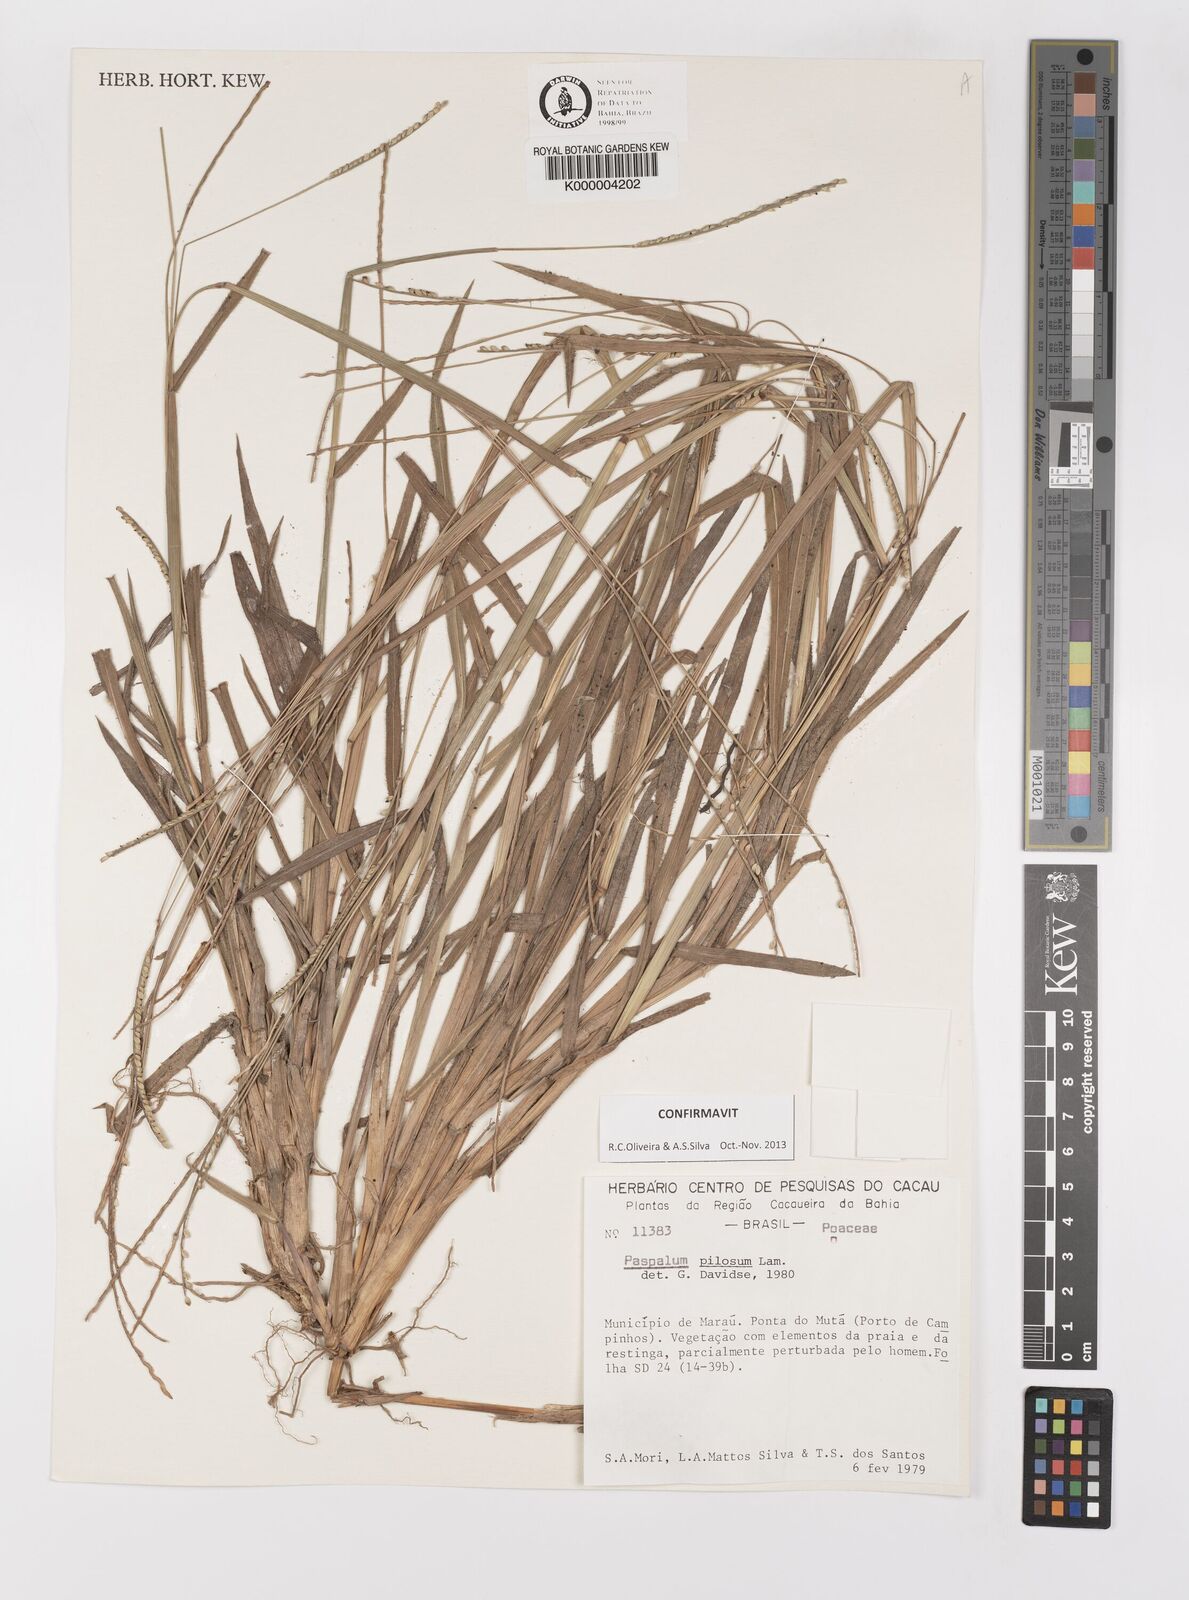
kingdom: Plantae
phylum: Tracheophyta
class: Liliopsida
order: Poales
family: Poaceae
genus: Paspalum
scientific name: Paspalum pilosum
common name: Crowngrass
